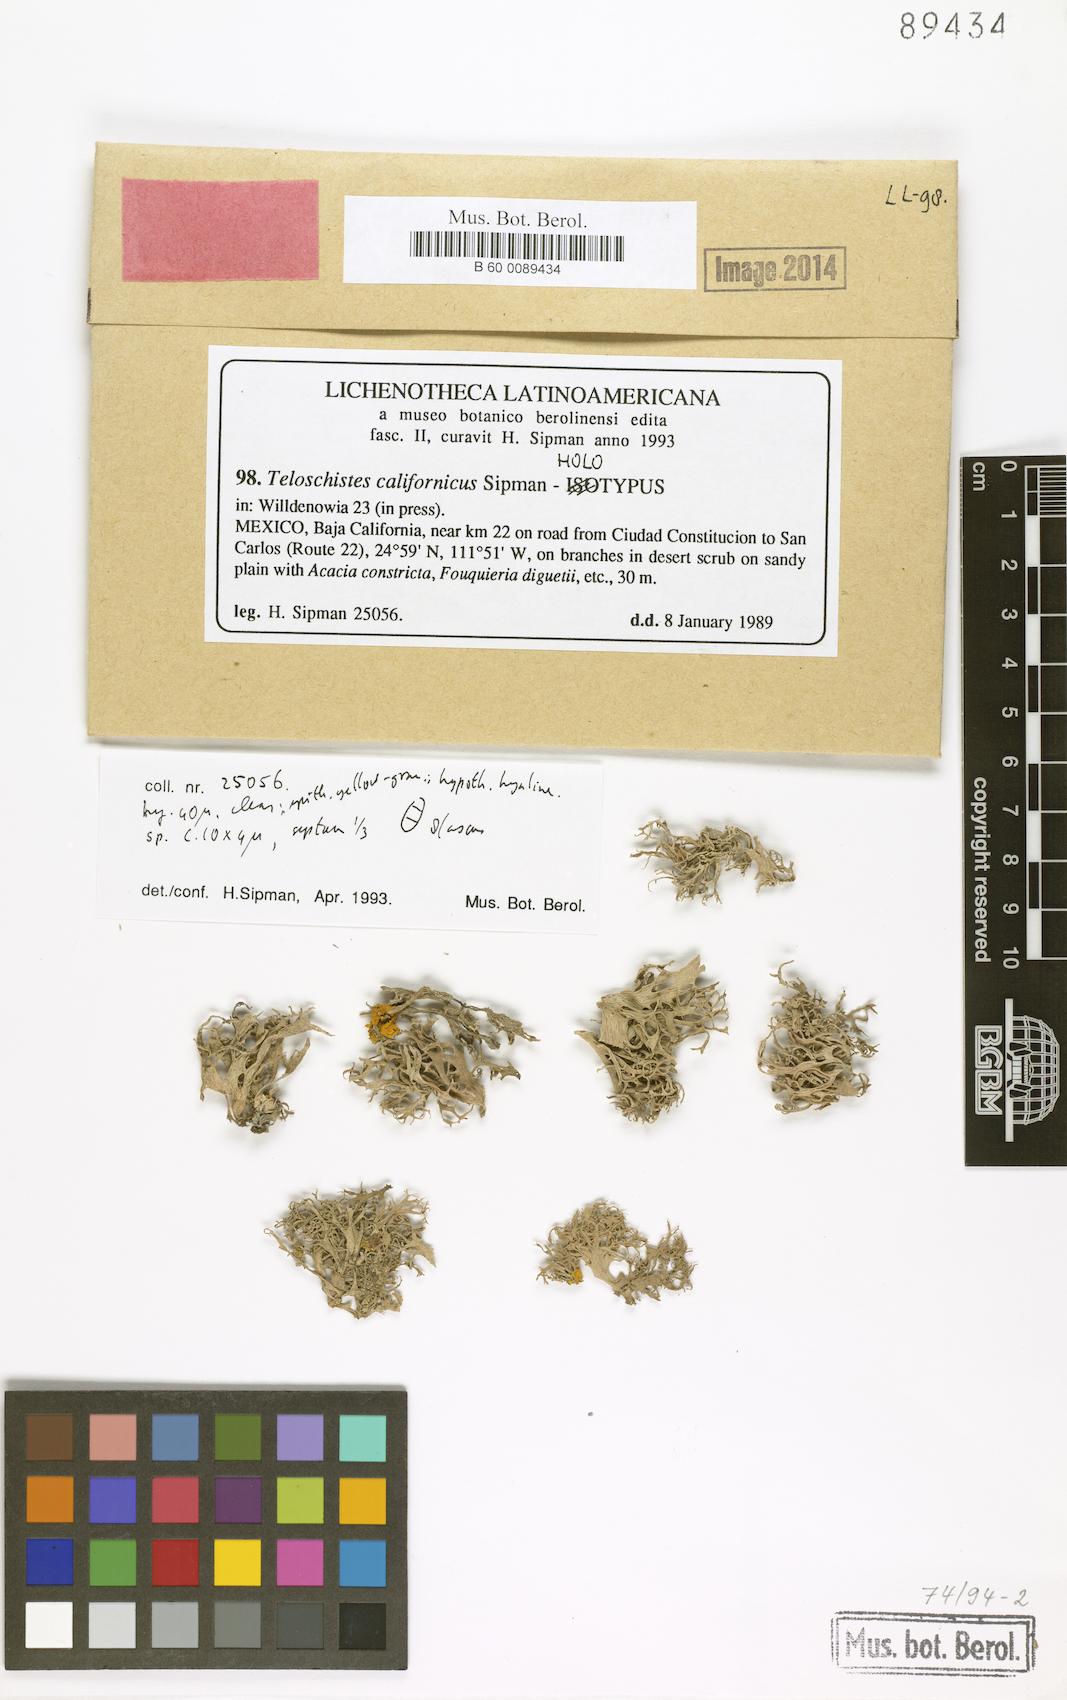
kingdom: Fungi
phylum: Ascomycota
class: Lecanoromycetes
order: Teloschistales
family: Teloschistaceae
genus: Seirophora
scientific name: Seirophora californica
